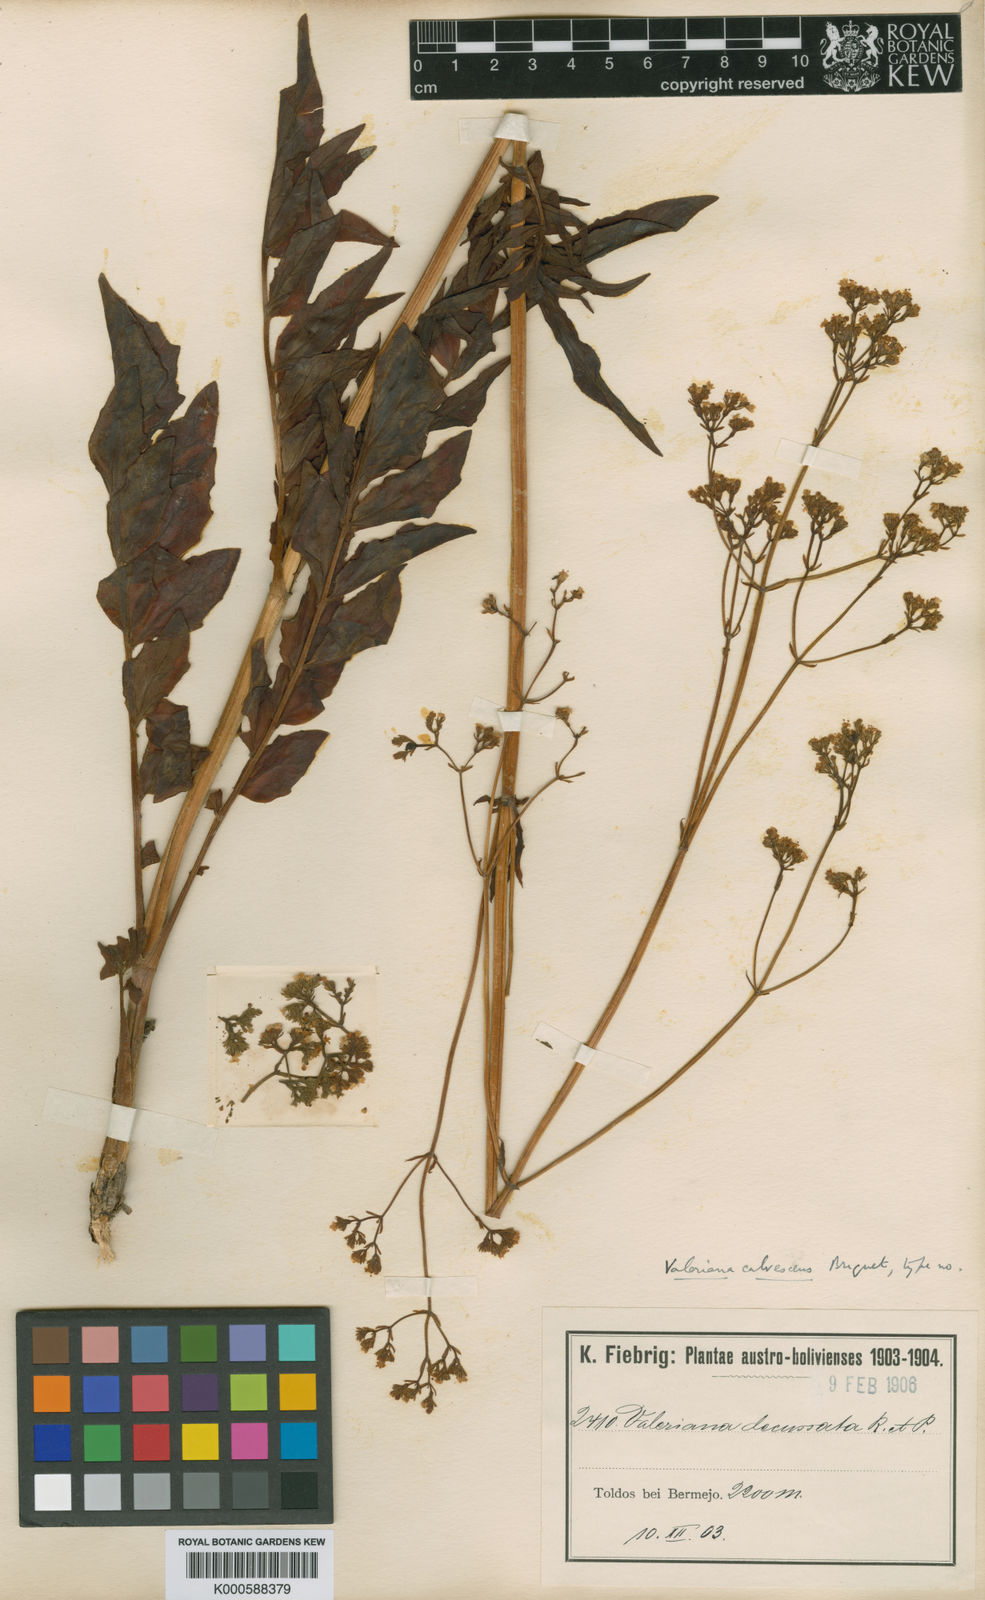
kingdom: Plantae
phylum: Tracheophyta
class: Magnoliopsida
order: Dipsacales
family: Caprifoliaceae
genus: Valeriana
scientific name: Valeriana calvescens
